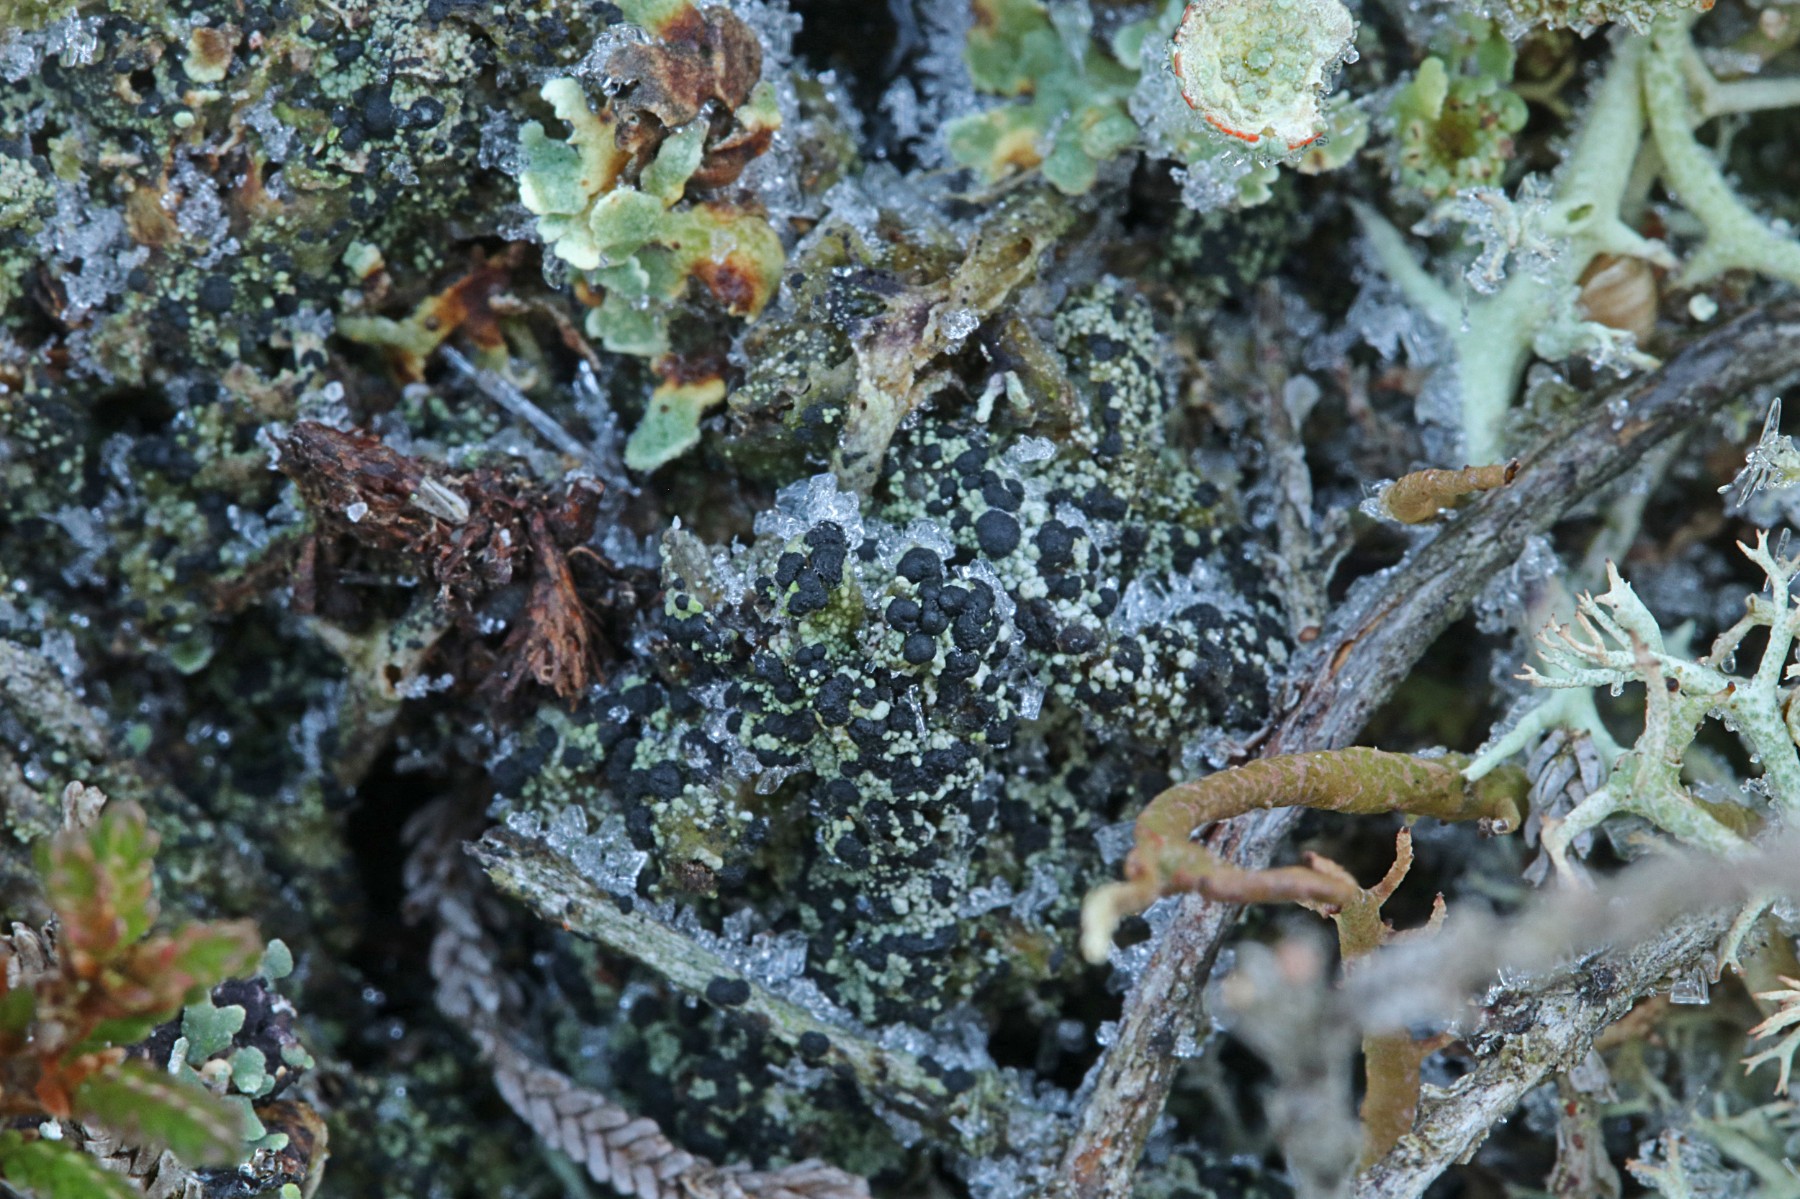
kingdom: Fungi
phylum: Ascomycota
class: Lecanoromycetes
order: Lecanorales
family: Byssolomataceae
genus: Micarea
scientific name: Micarea lignaria
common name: tørve-knaplav
